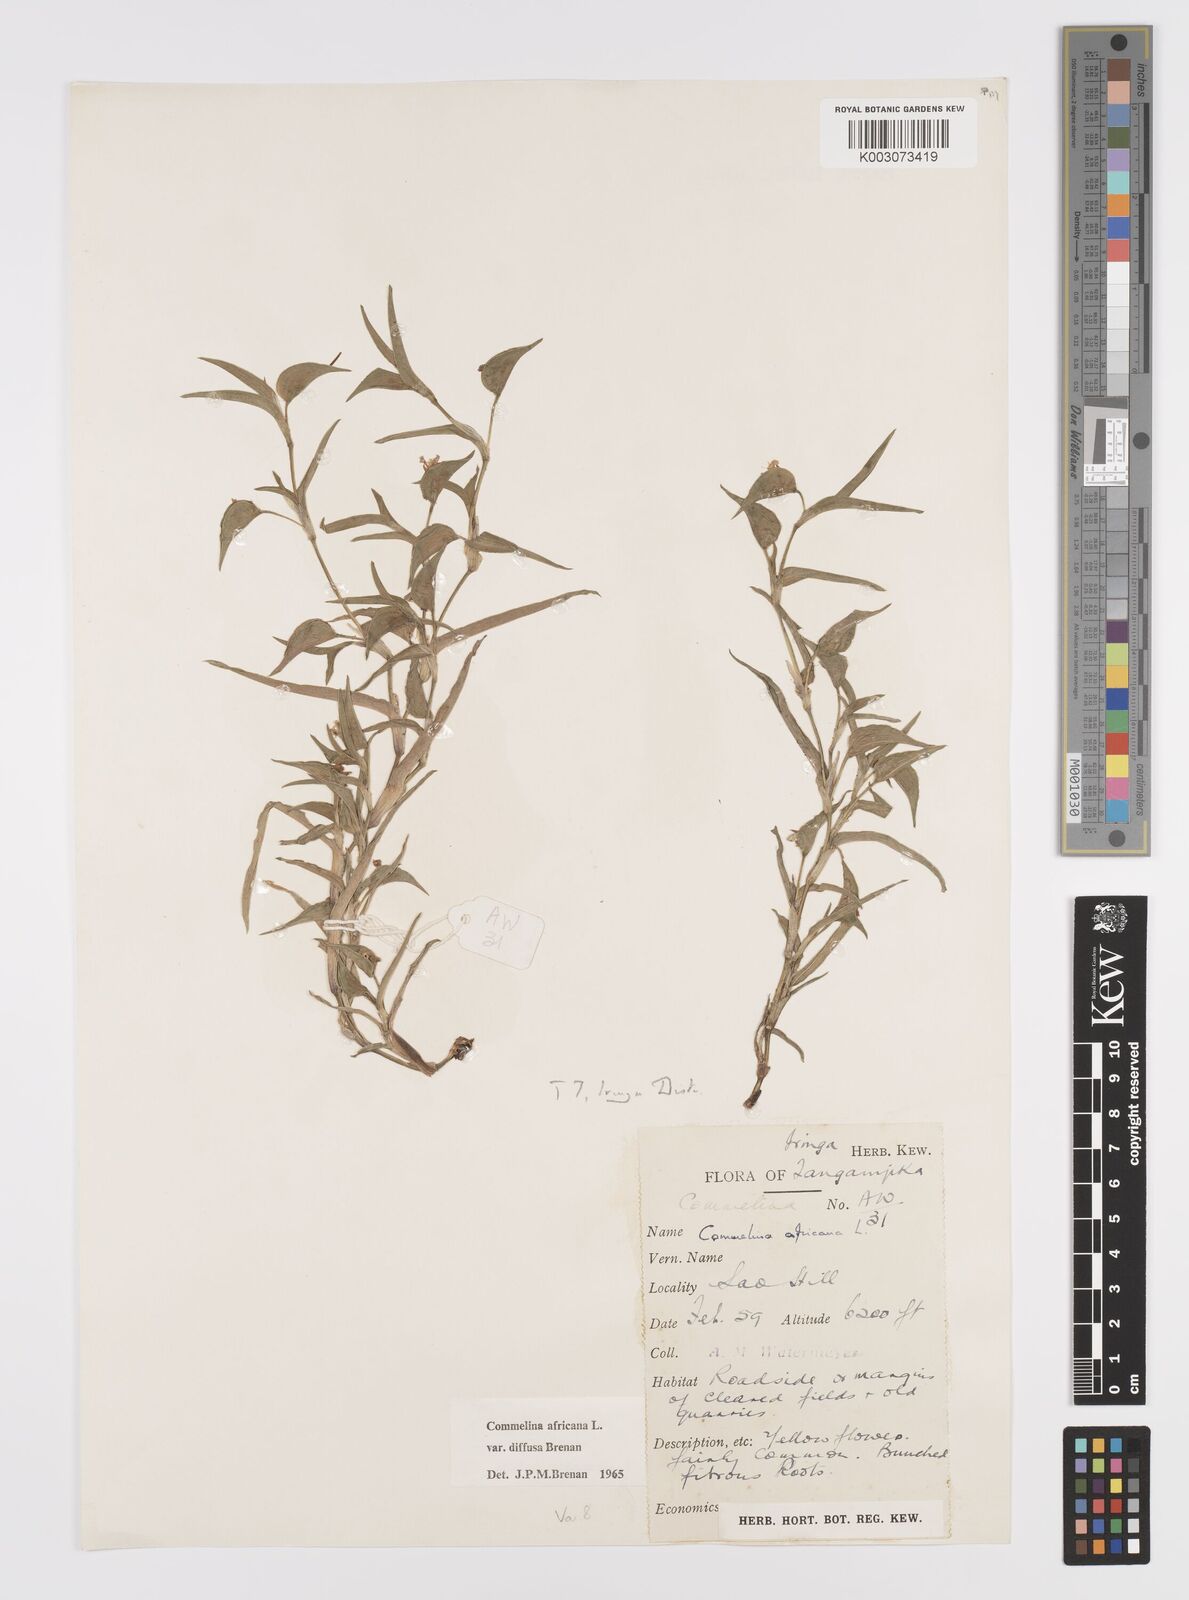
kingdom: Plantae
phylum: Tracheophyta
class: Liliopsida
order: Commelinales
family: Commelinaceae
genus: Commelina
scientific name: Commelina africana
